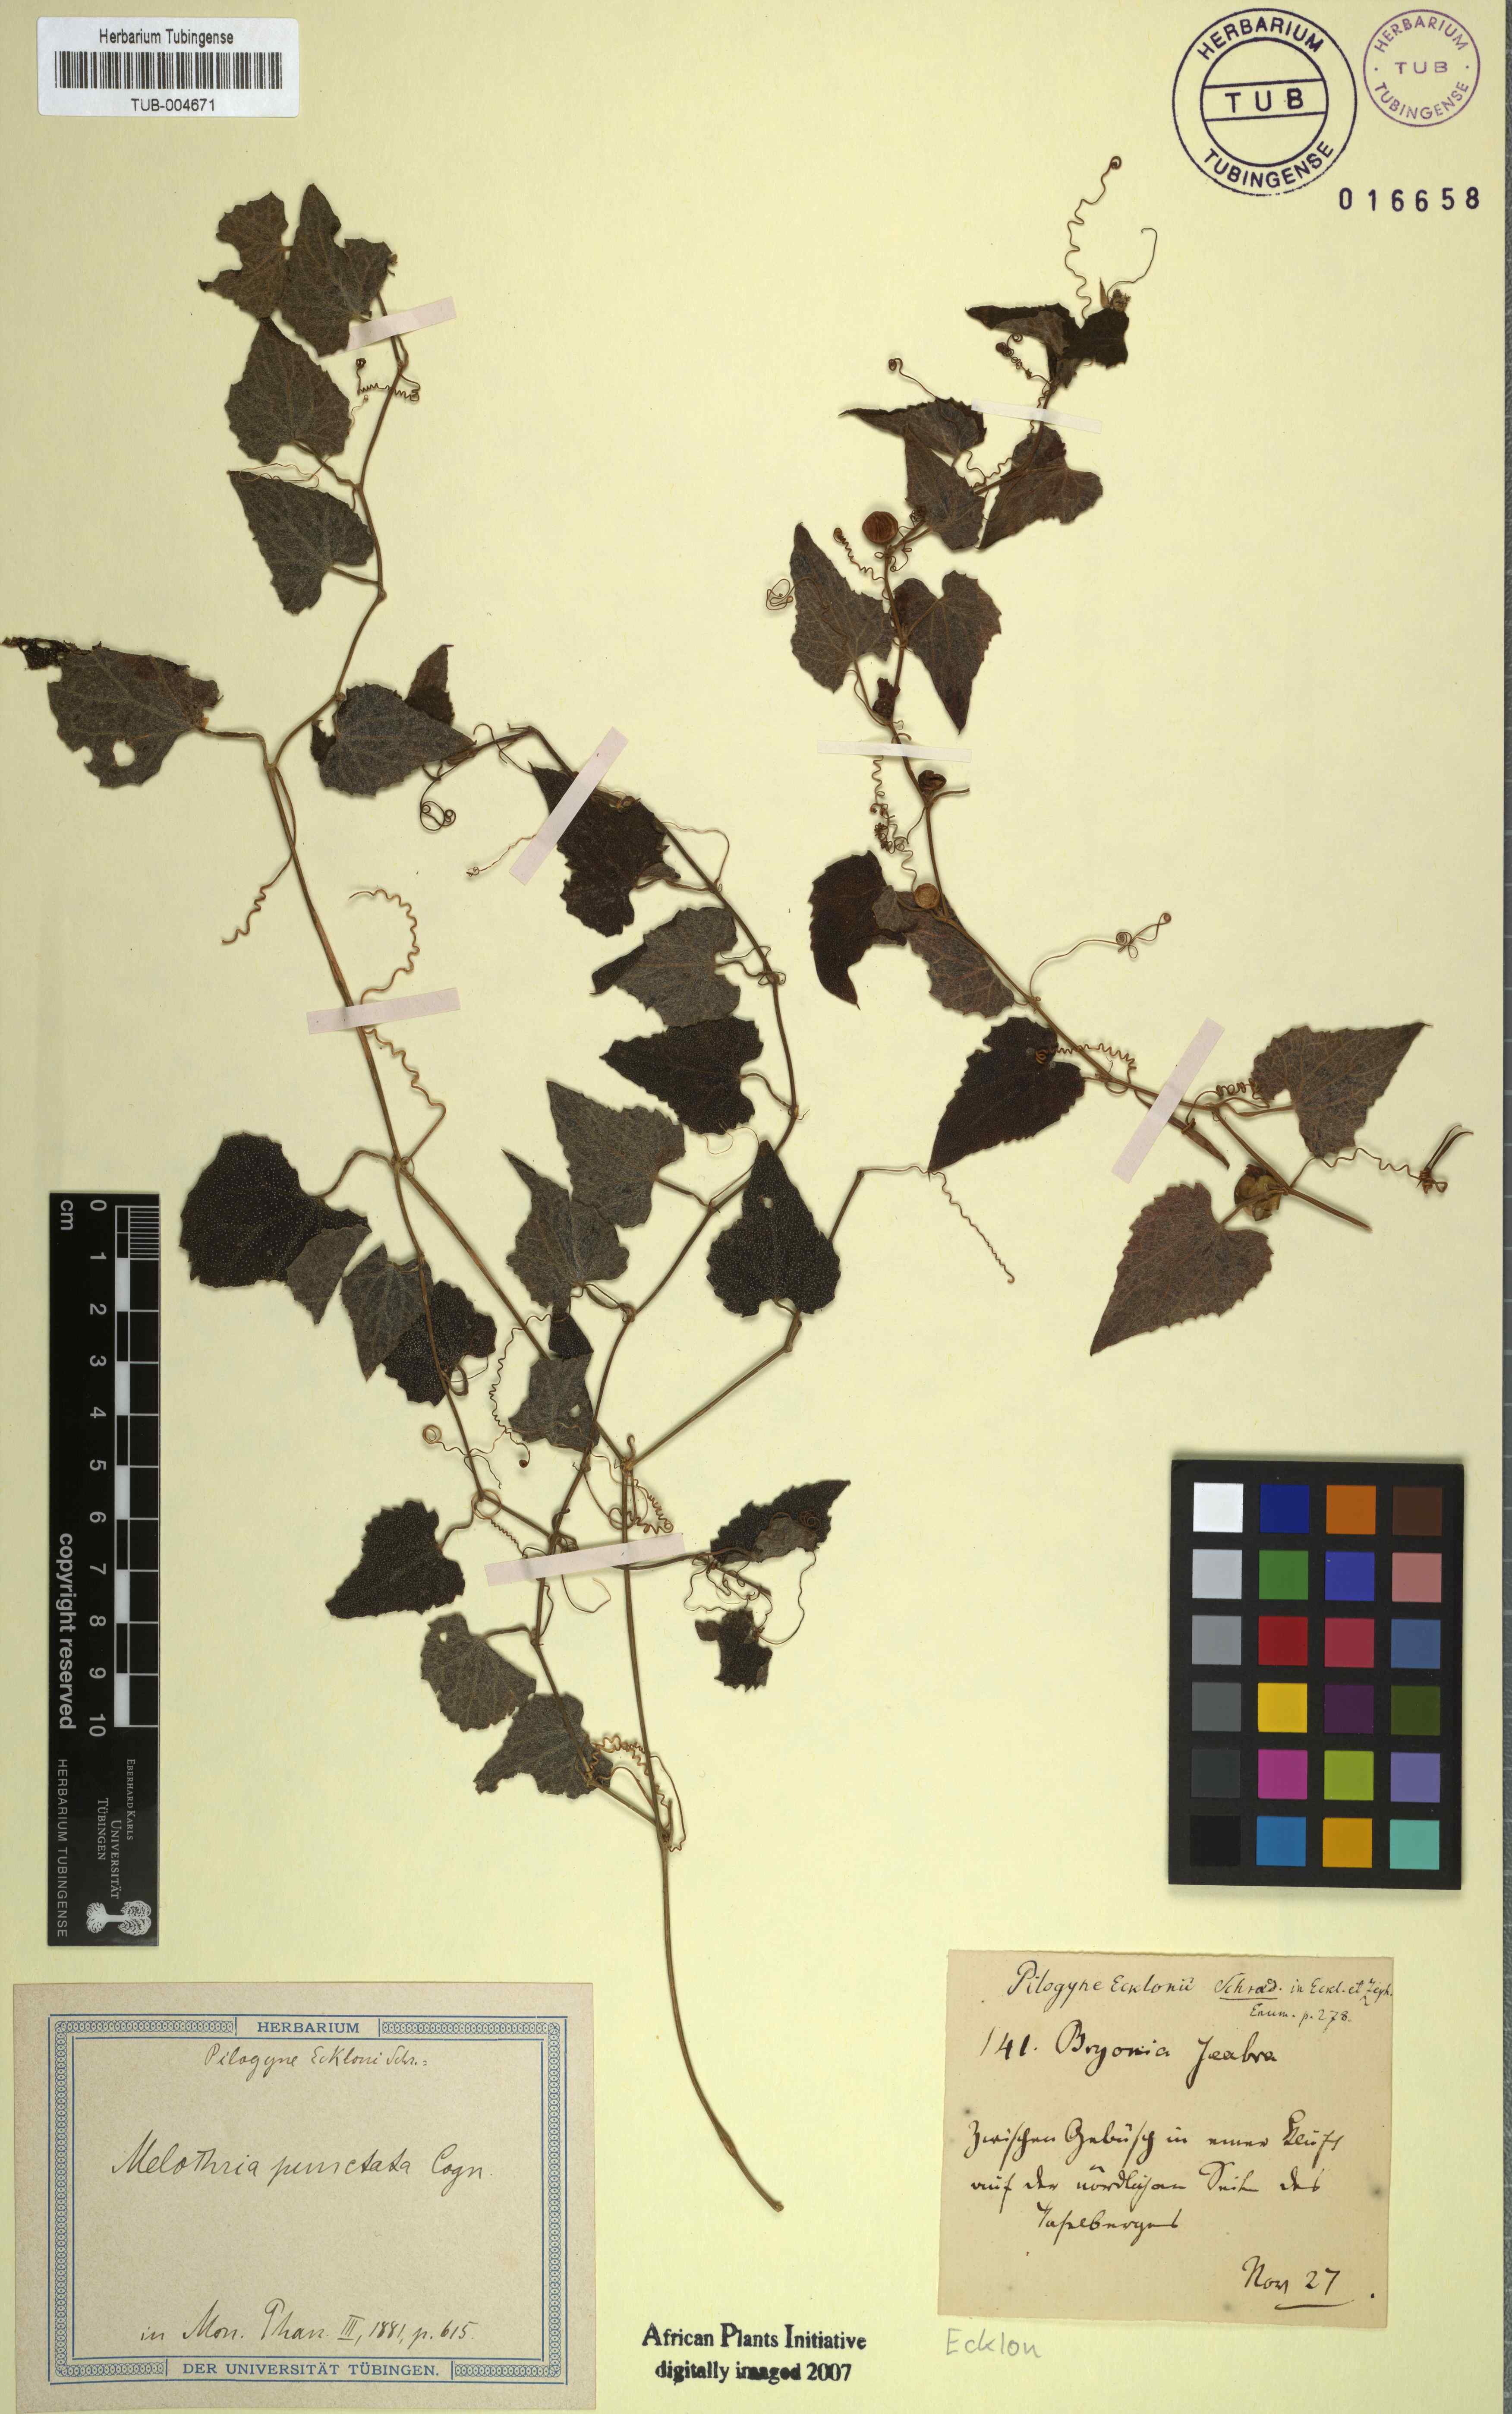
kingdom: Plantae
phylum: Tracheophyta
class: Magnoliopsida
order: Cucurbitales
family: Cucurbitaceae
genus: Zehneria
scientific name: Zehneria scabra
